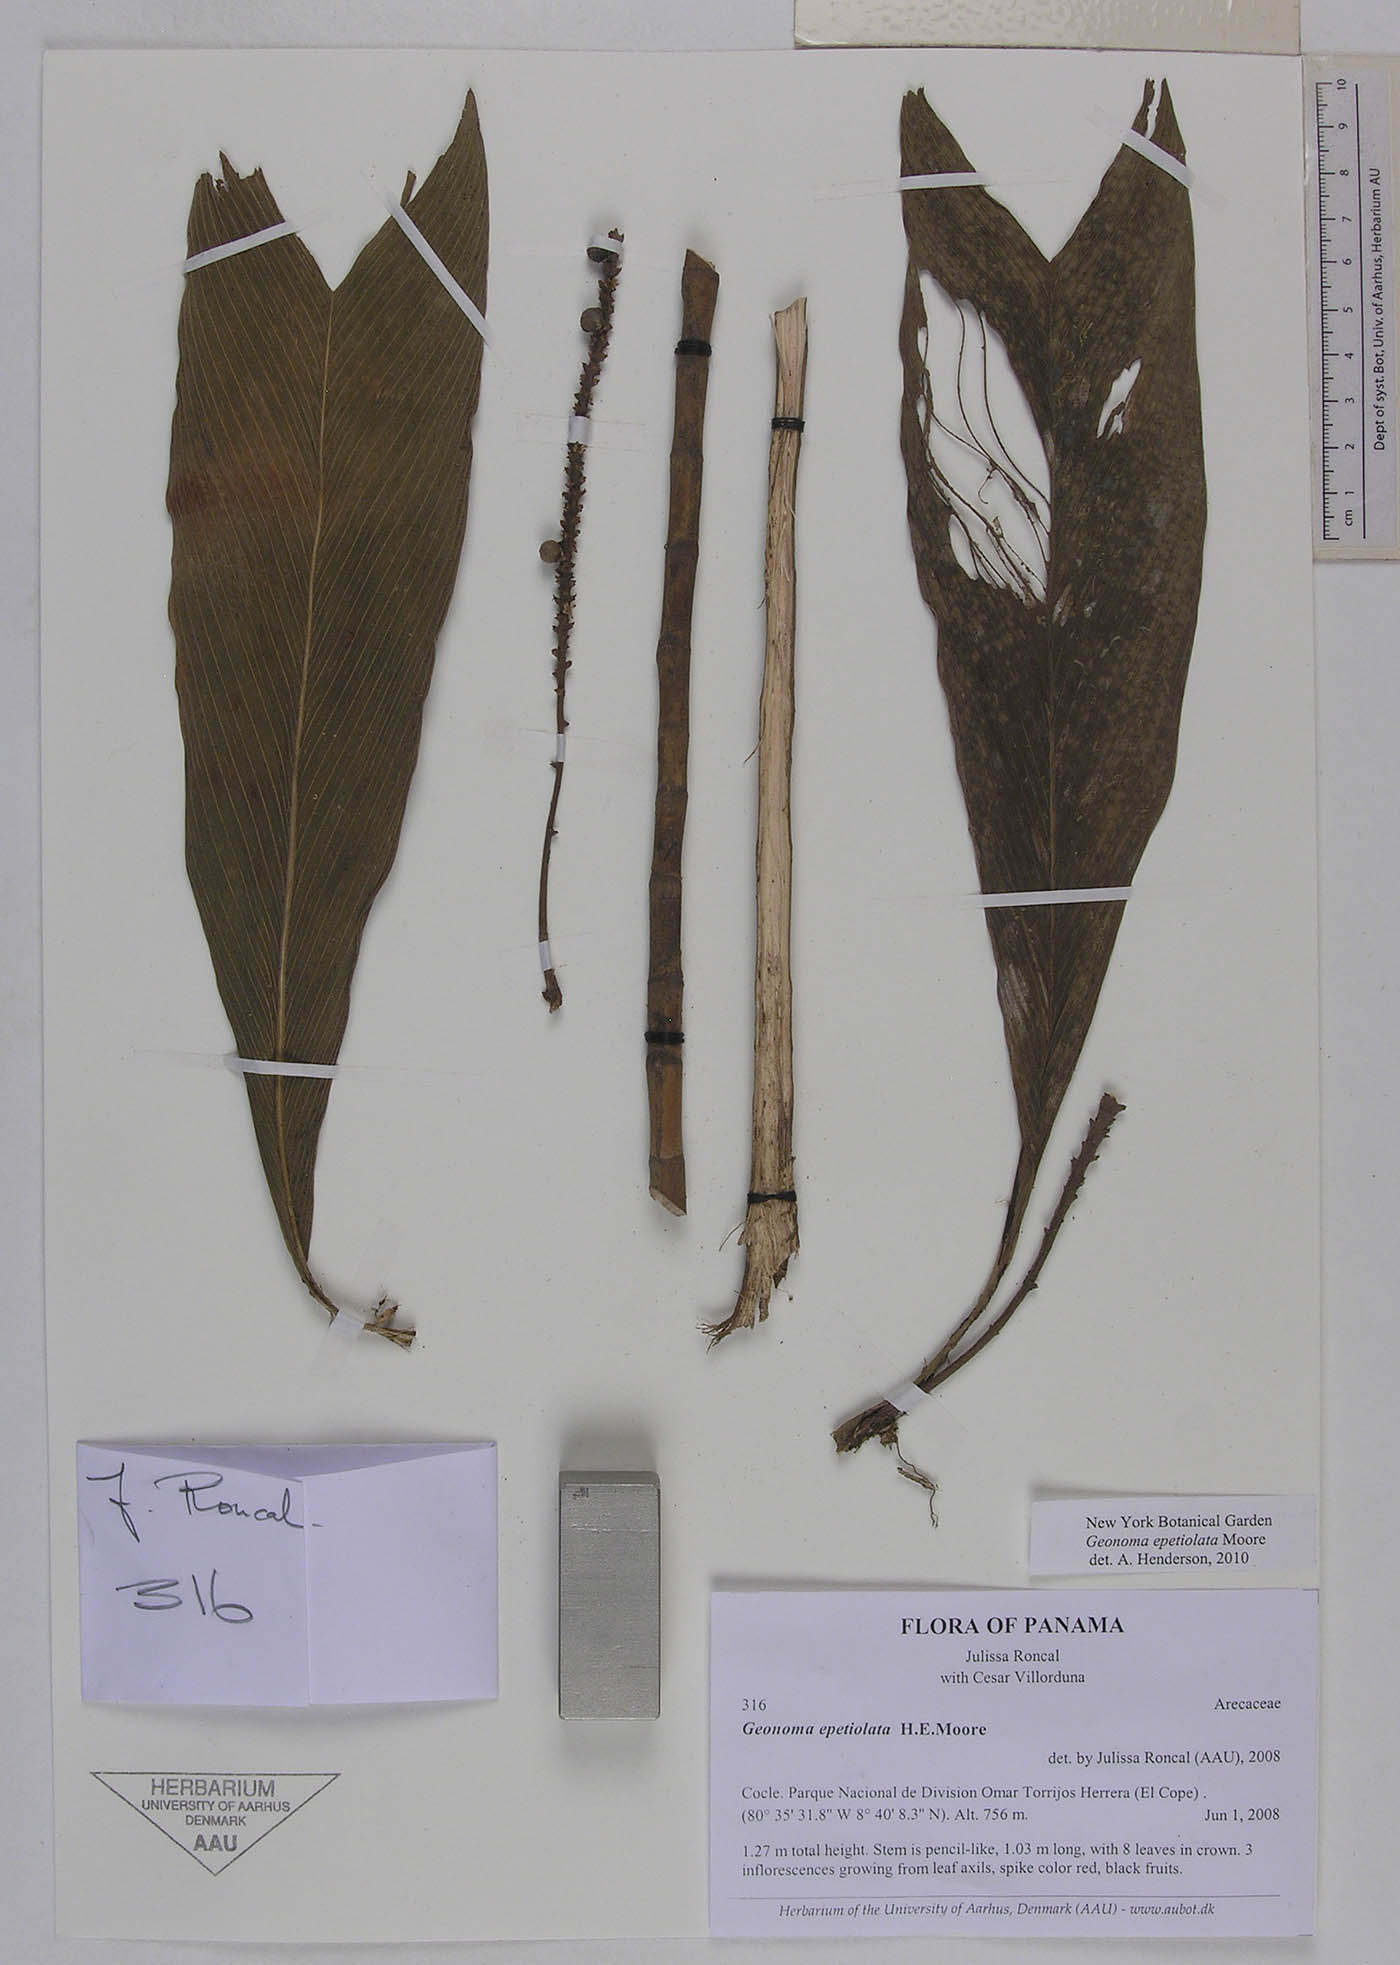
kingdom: Plantae
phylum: Tracheophyta
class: Liliopsida
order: Arecales
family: Arecaceae
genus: Geonoma
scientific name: Geonoma epetiolata
